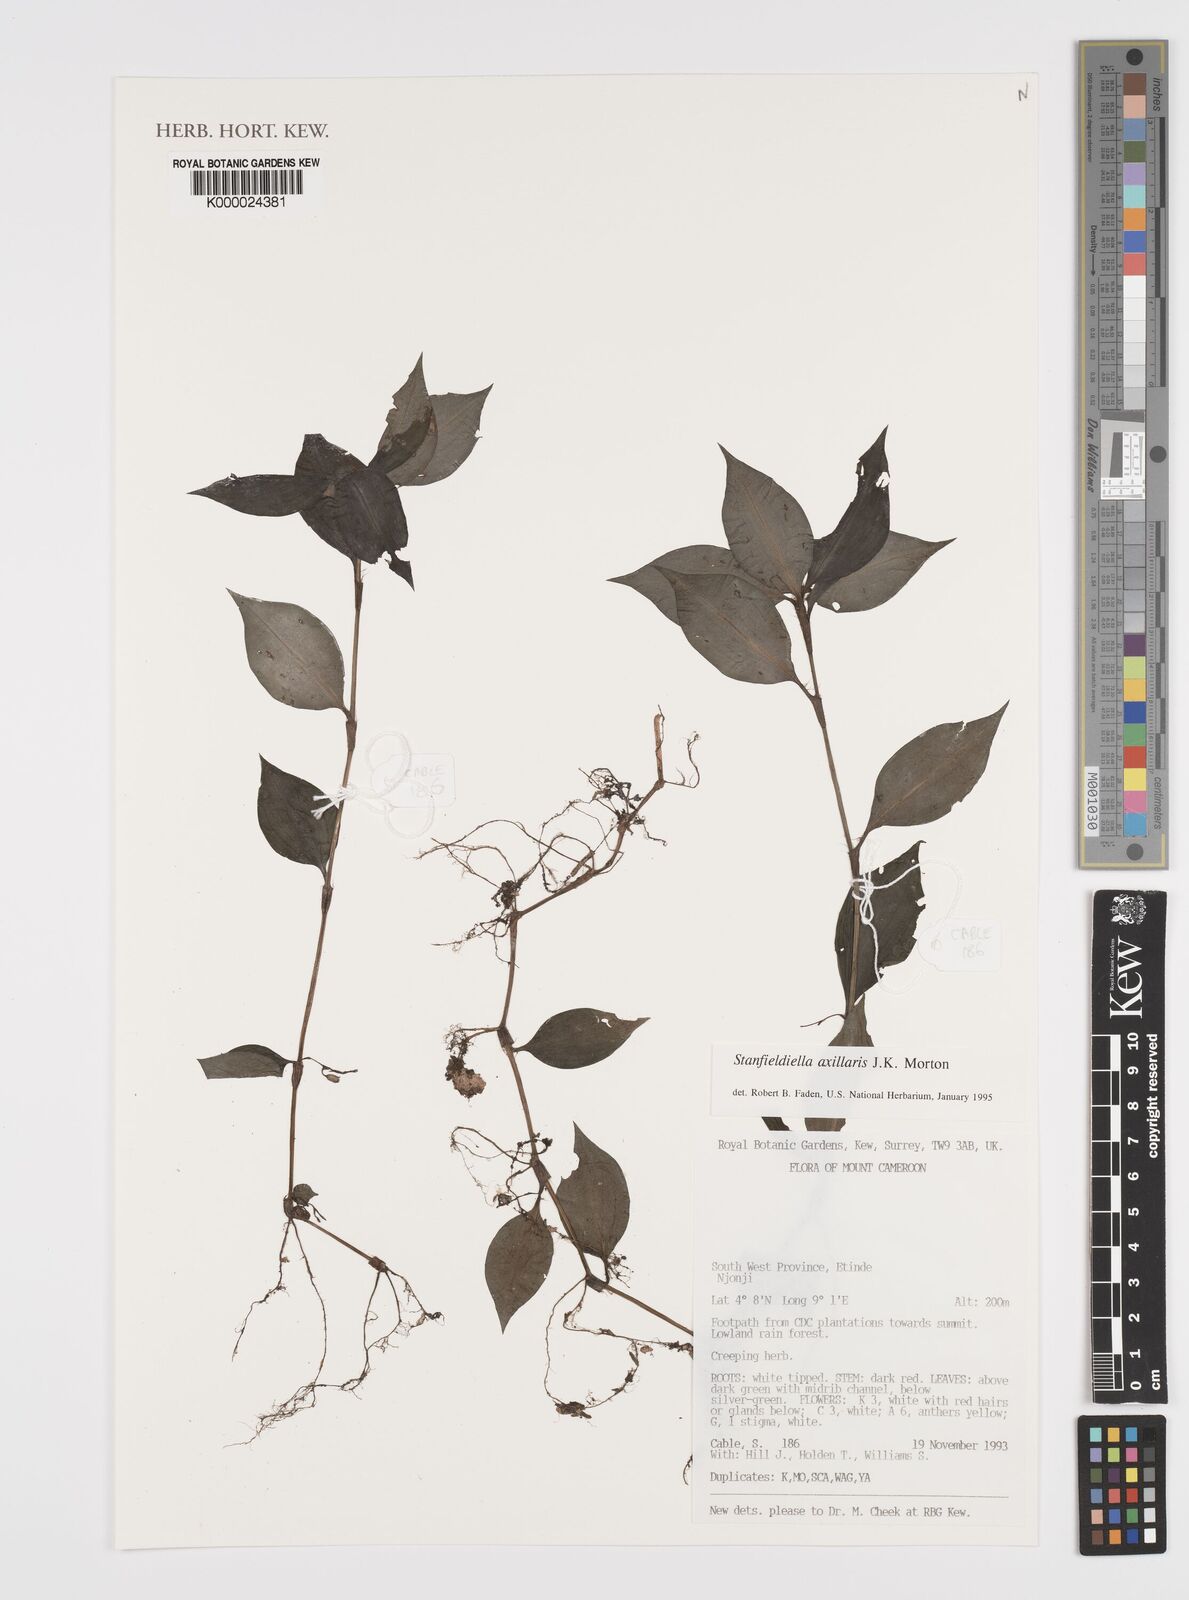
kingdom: Plantae
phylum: Tracheophyta
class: Liliopsida
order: Commelinales
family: Commelinaceae
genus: Stanfieldiella
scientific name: Stanfieldiella axillaris
